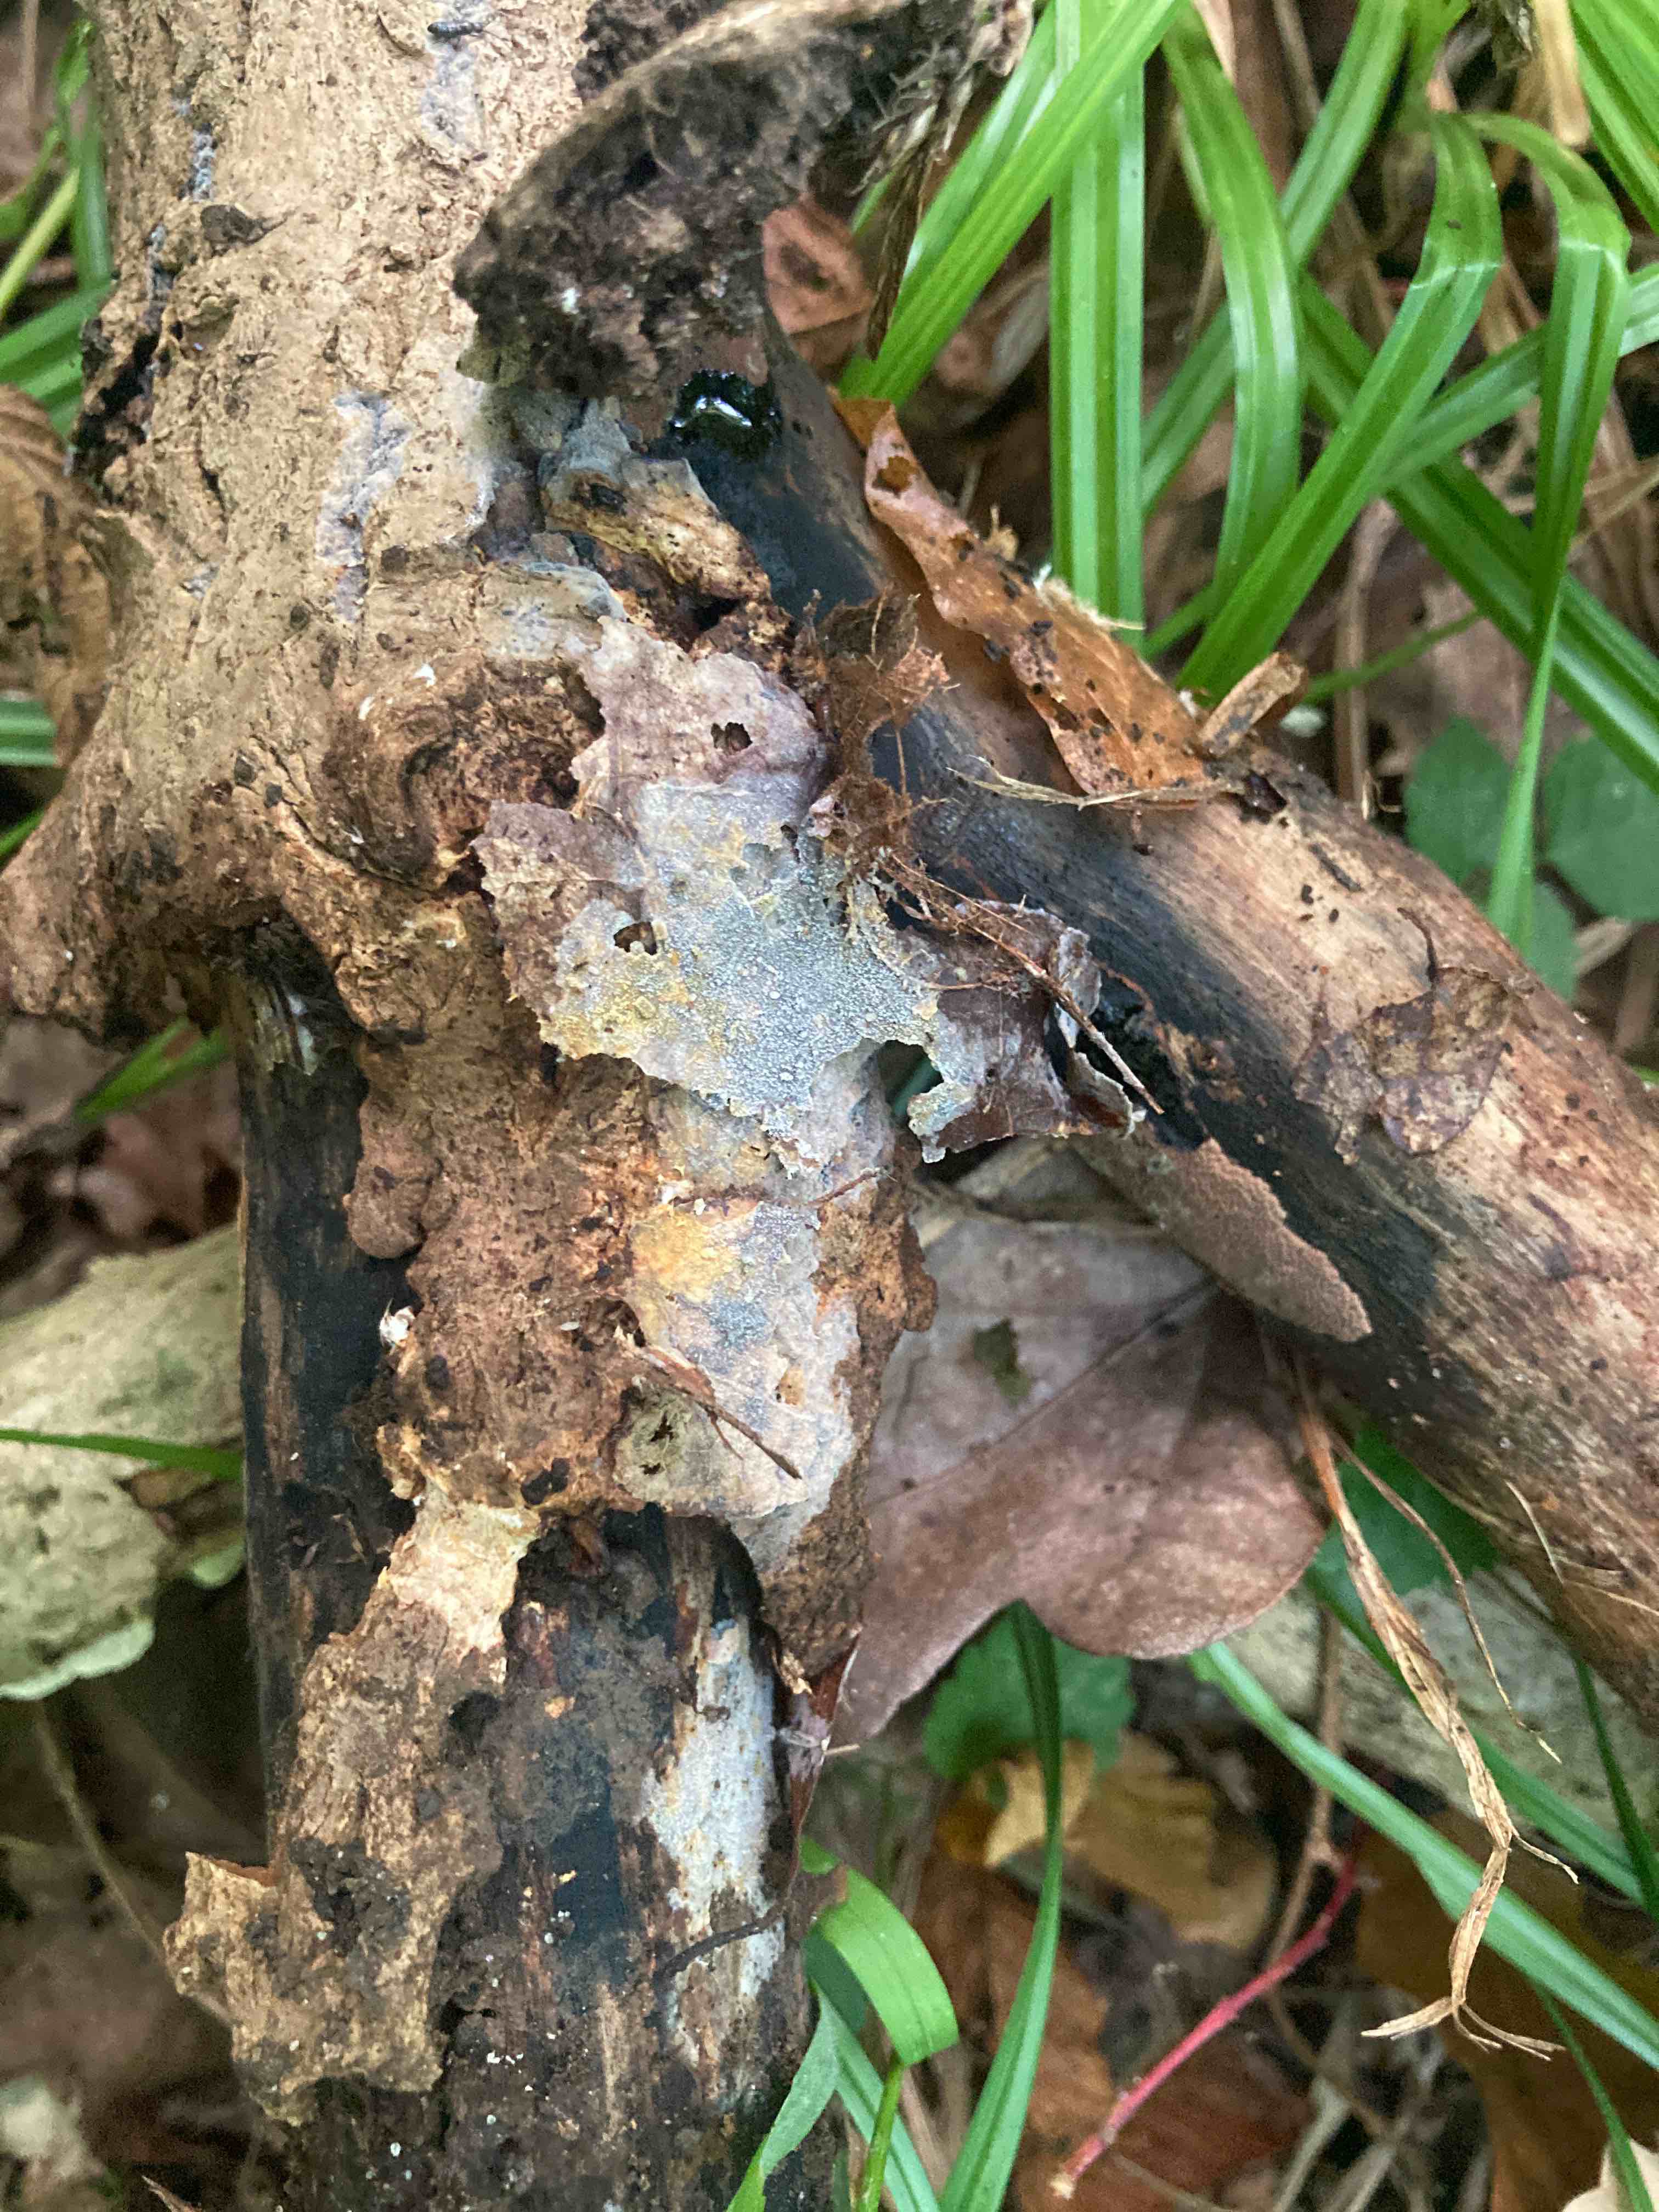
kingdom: Fungi
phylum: Basidiomycota
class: Agaricomycetes
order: Polyporales
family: Meruliaceae
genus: Scopuloides
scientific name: Scopuloides rimosa
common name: dughinde
